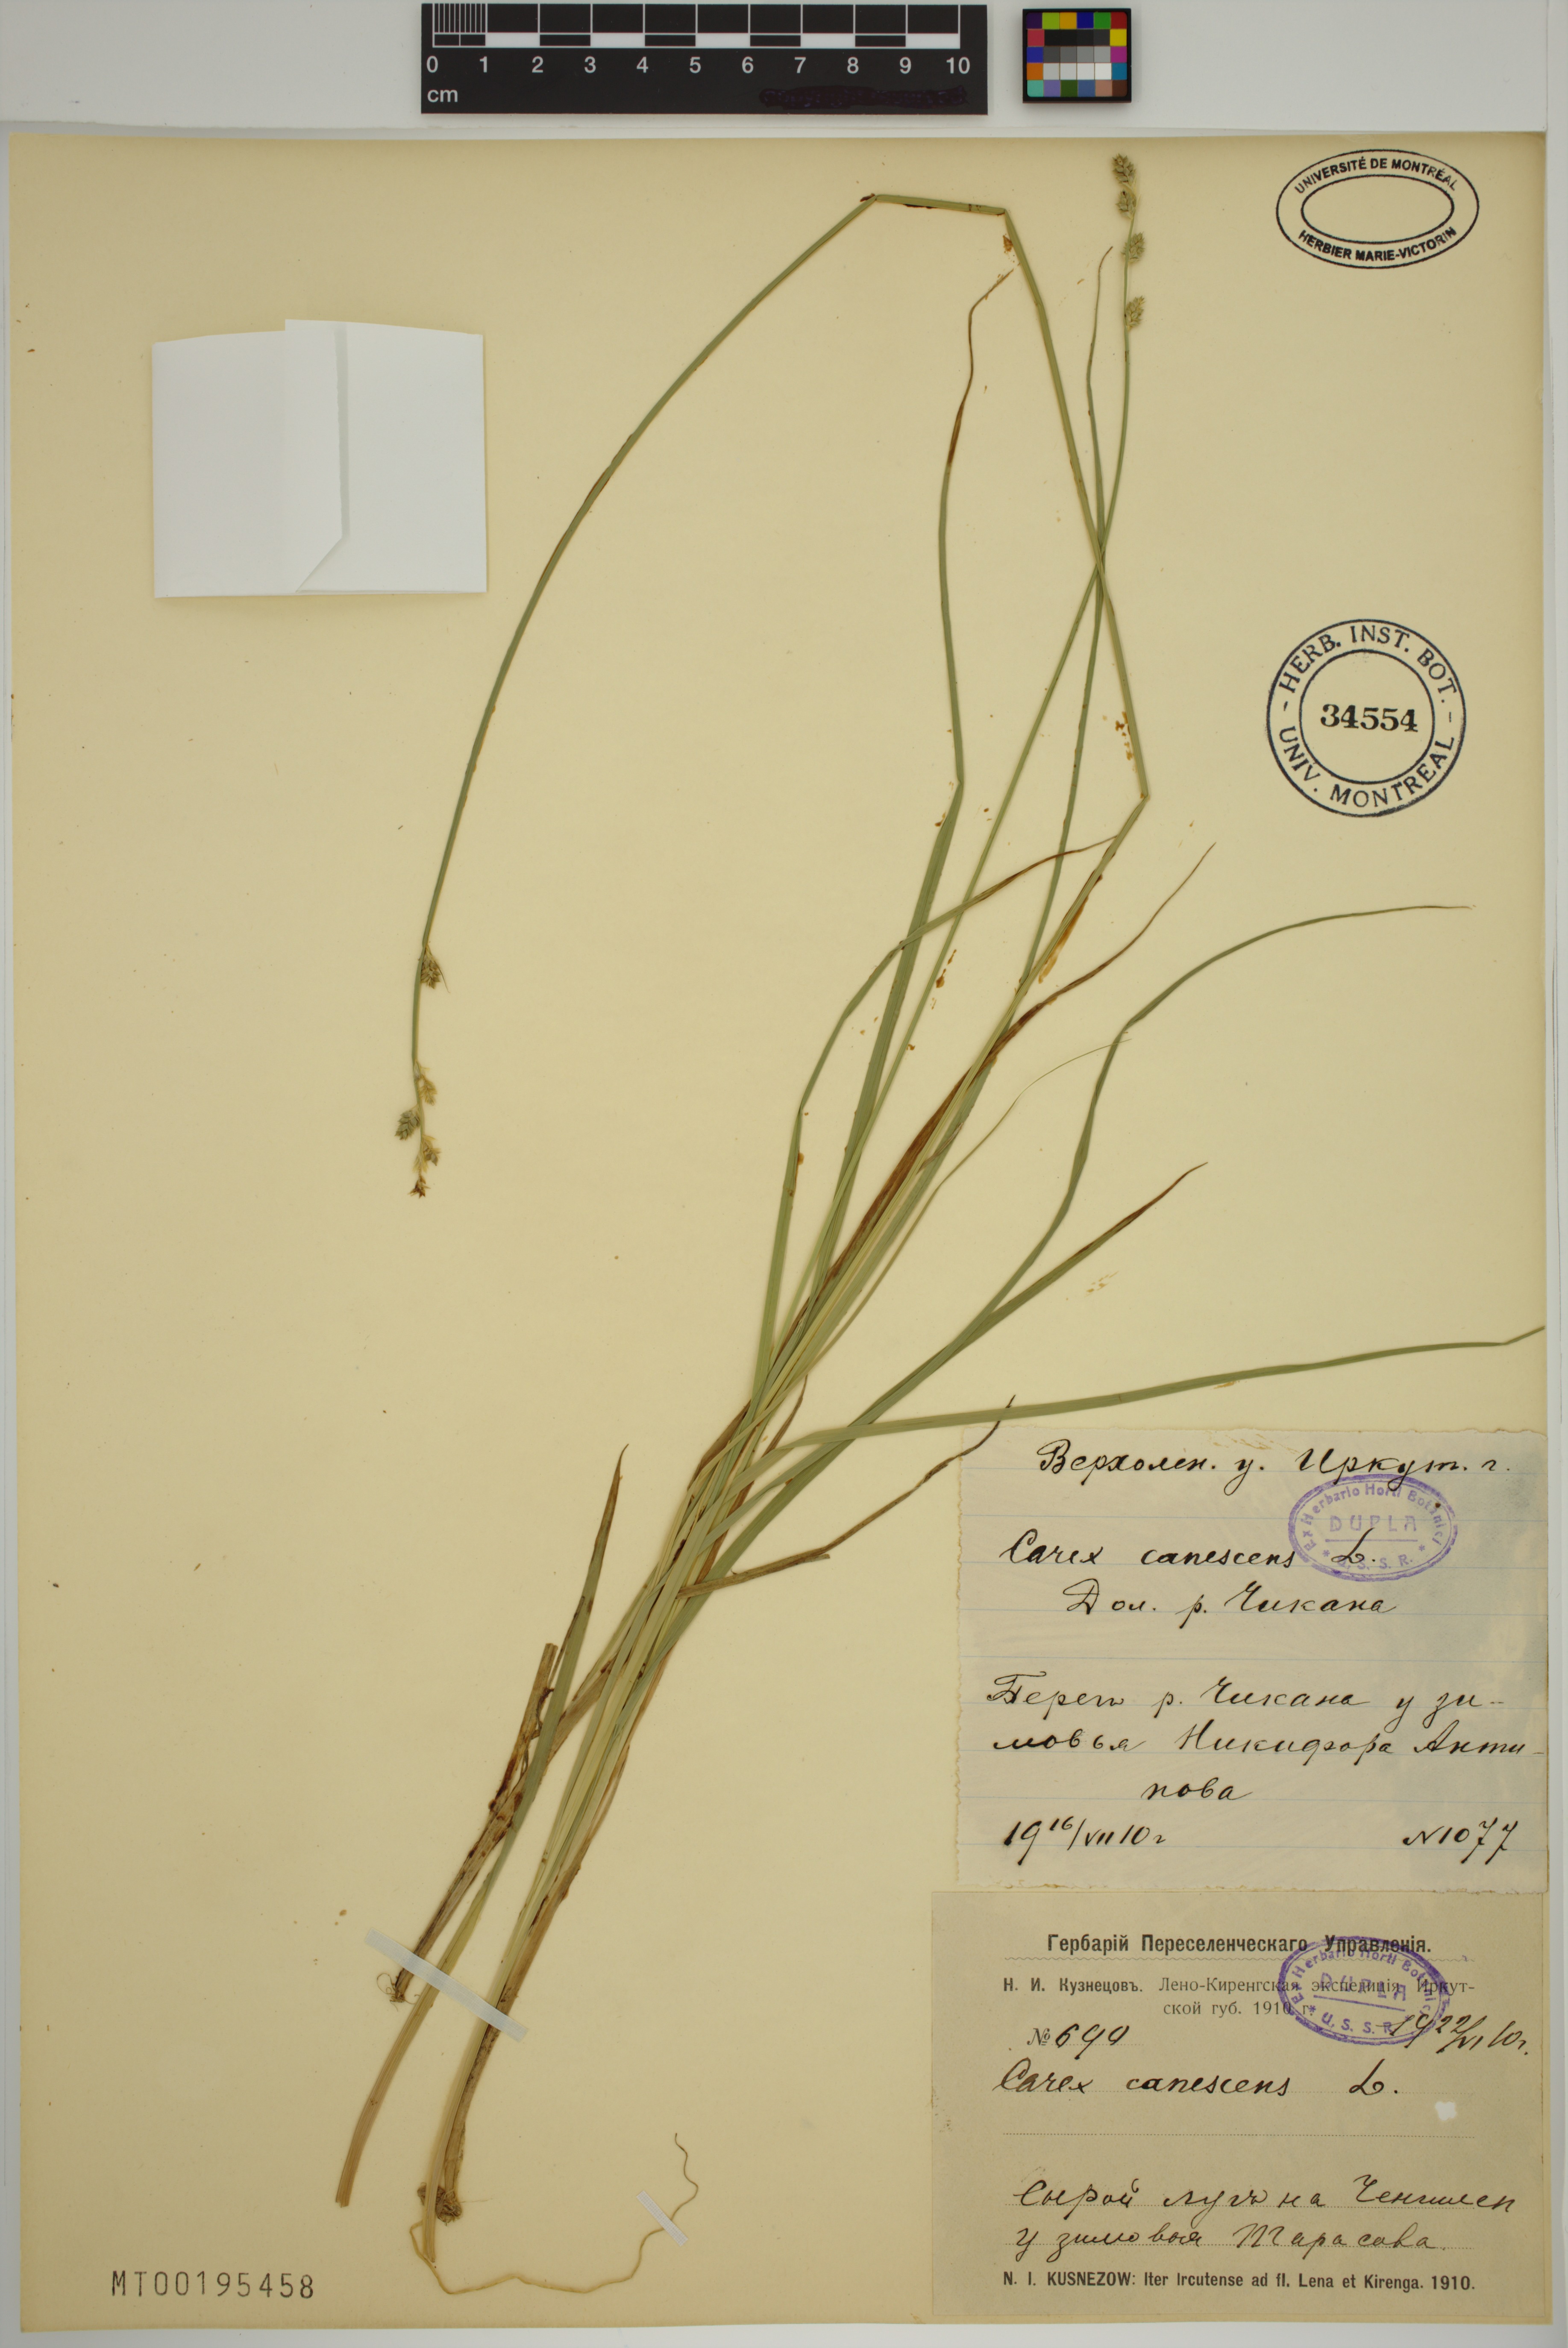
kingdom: Plantae
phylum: Tracheophyta
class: Liliopsida
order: Poales
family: Cyperaceae
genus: Carex
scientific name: Carex canescens
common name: White sedge
